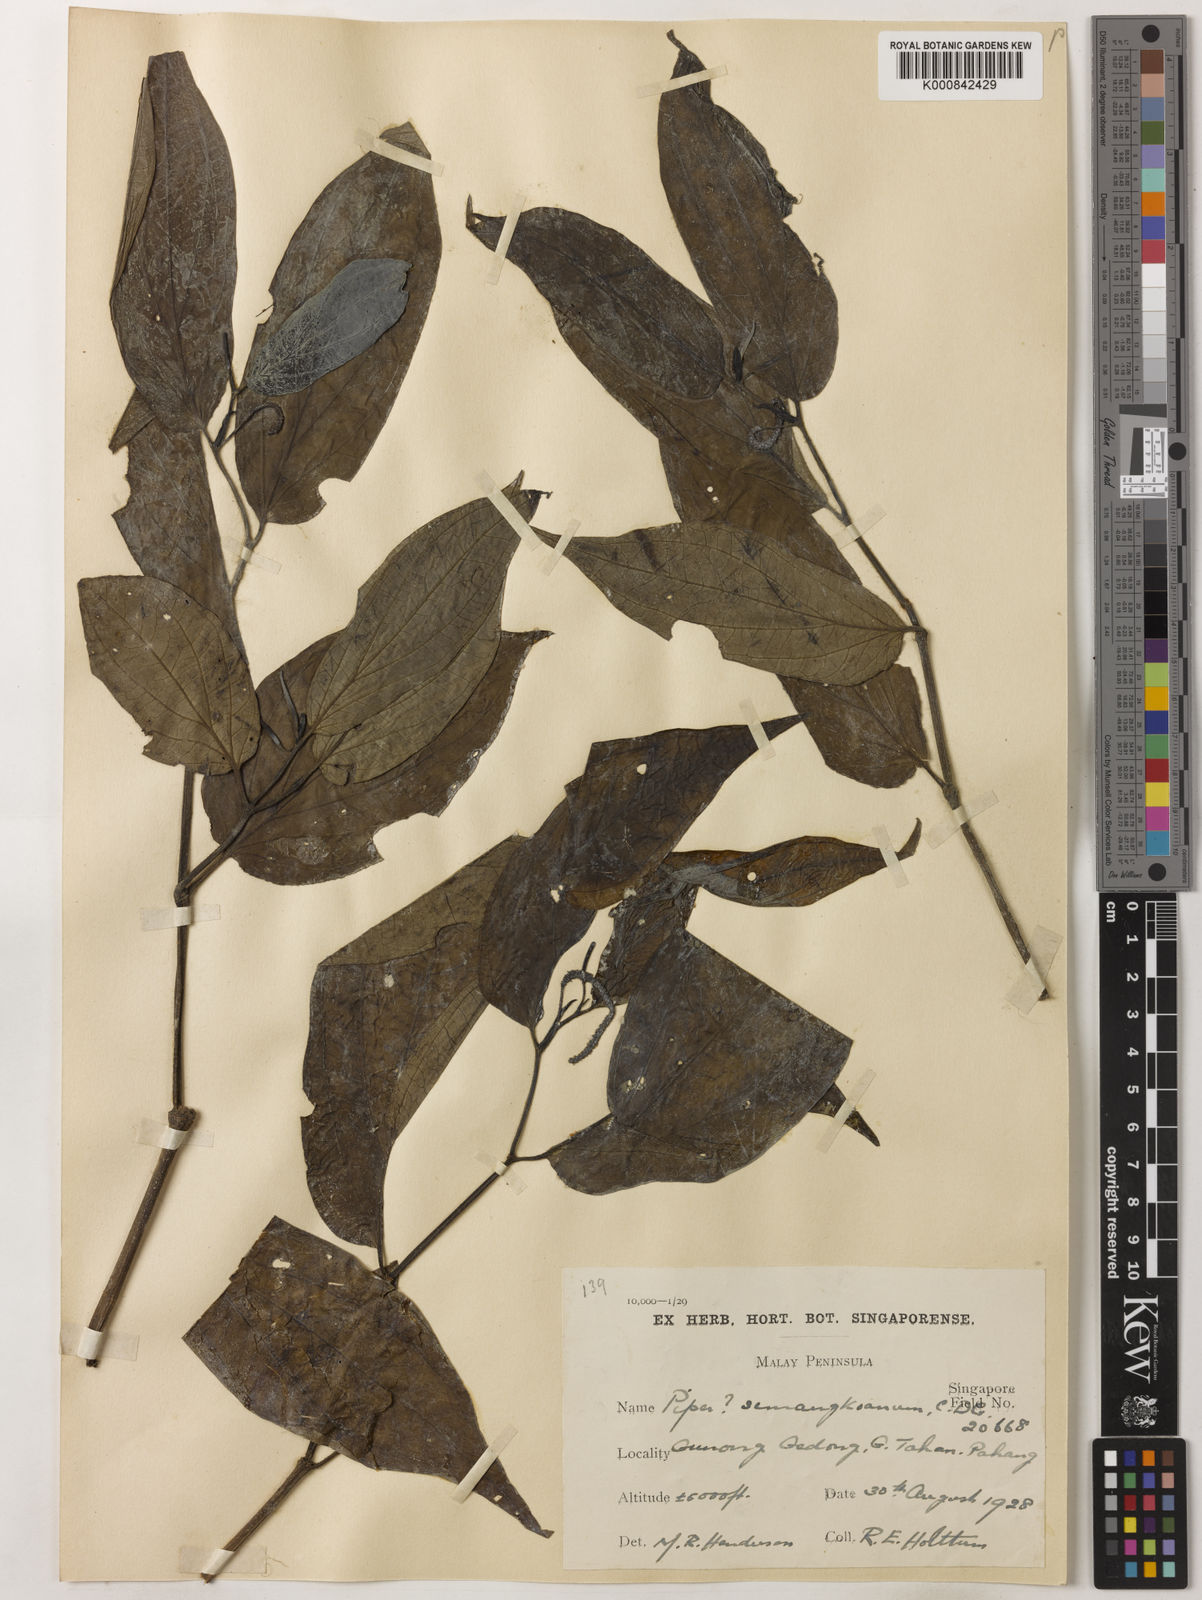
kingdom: Plantae
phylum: Tracheophyta
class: Magnoliopsida
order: Piperales
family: Piperaceae
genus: Piper
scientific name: Piper semangkoanum
